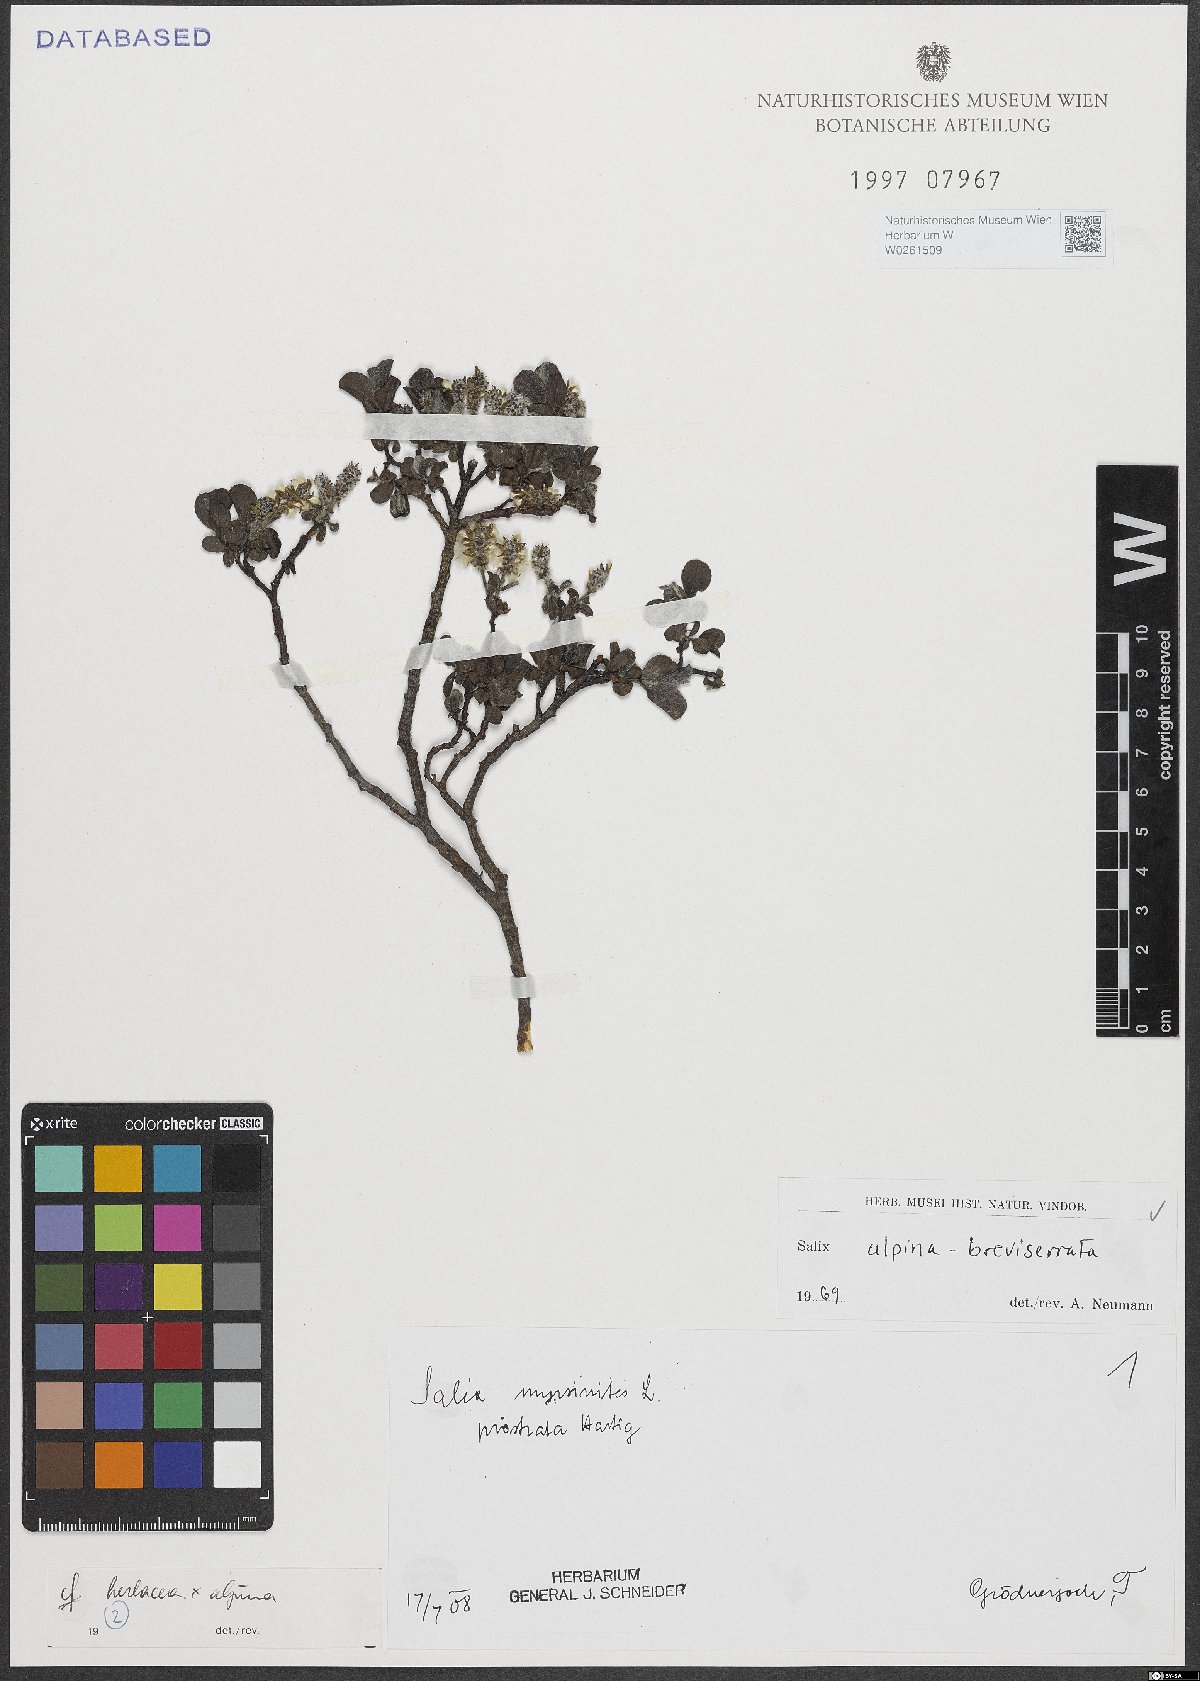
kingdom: Plantae
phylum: Tracheophyta
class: Magnoliopsida
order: Malpighiales
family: Salicaceae
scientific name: Salicaceae
